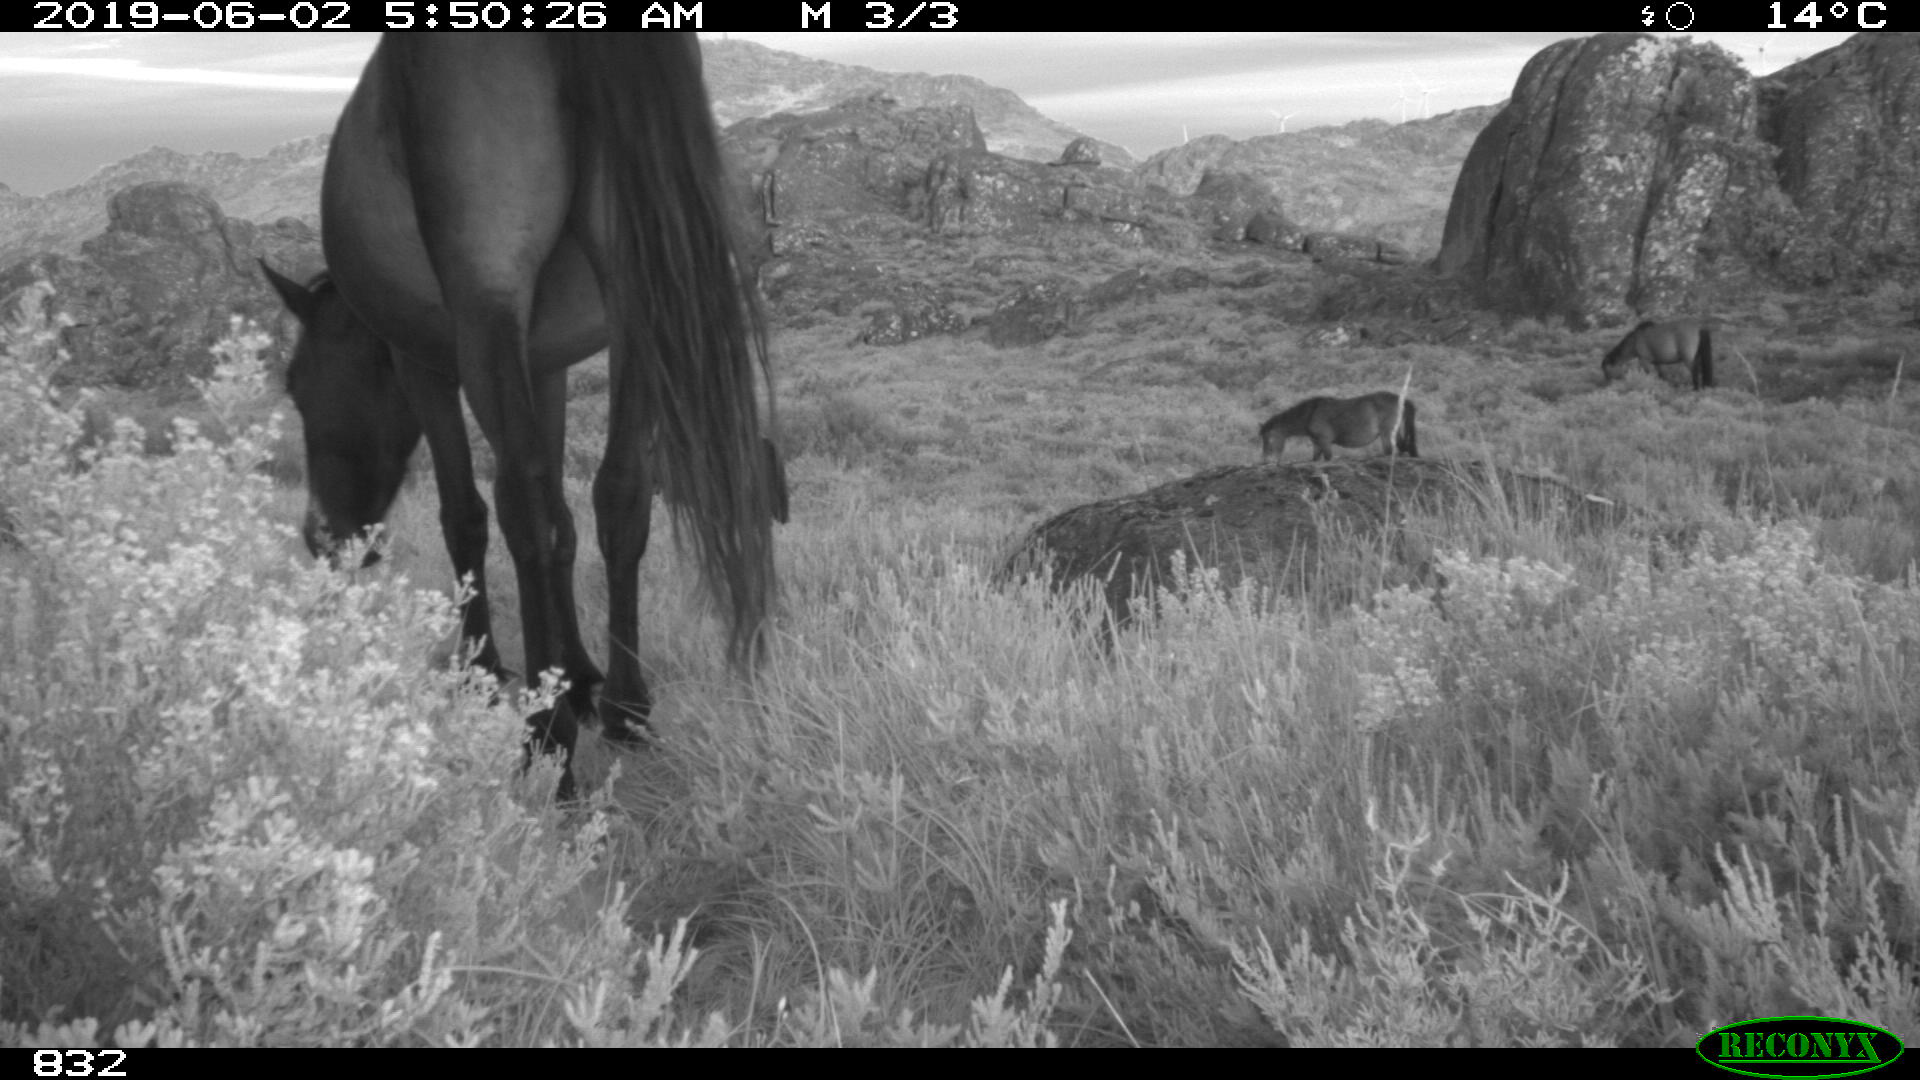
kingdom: Animalia
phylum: Chordata
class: Mammalia
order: Perissodactyla
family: Equidae
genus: Equus
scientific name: Equus caballus
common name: Horse
